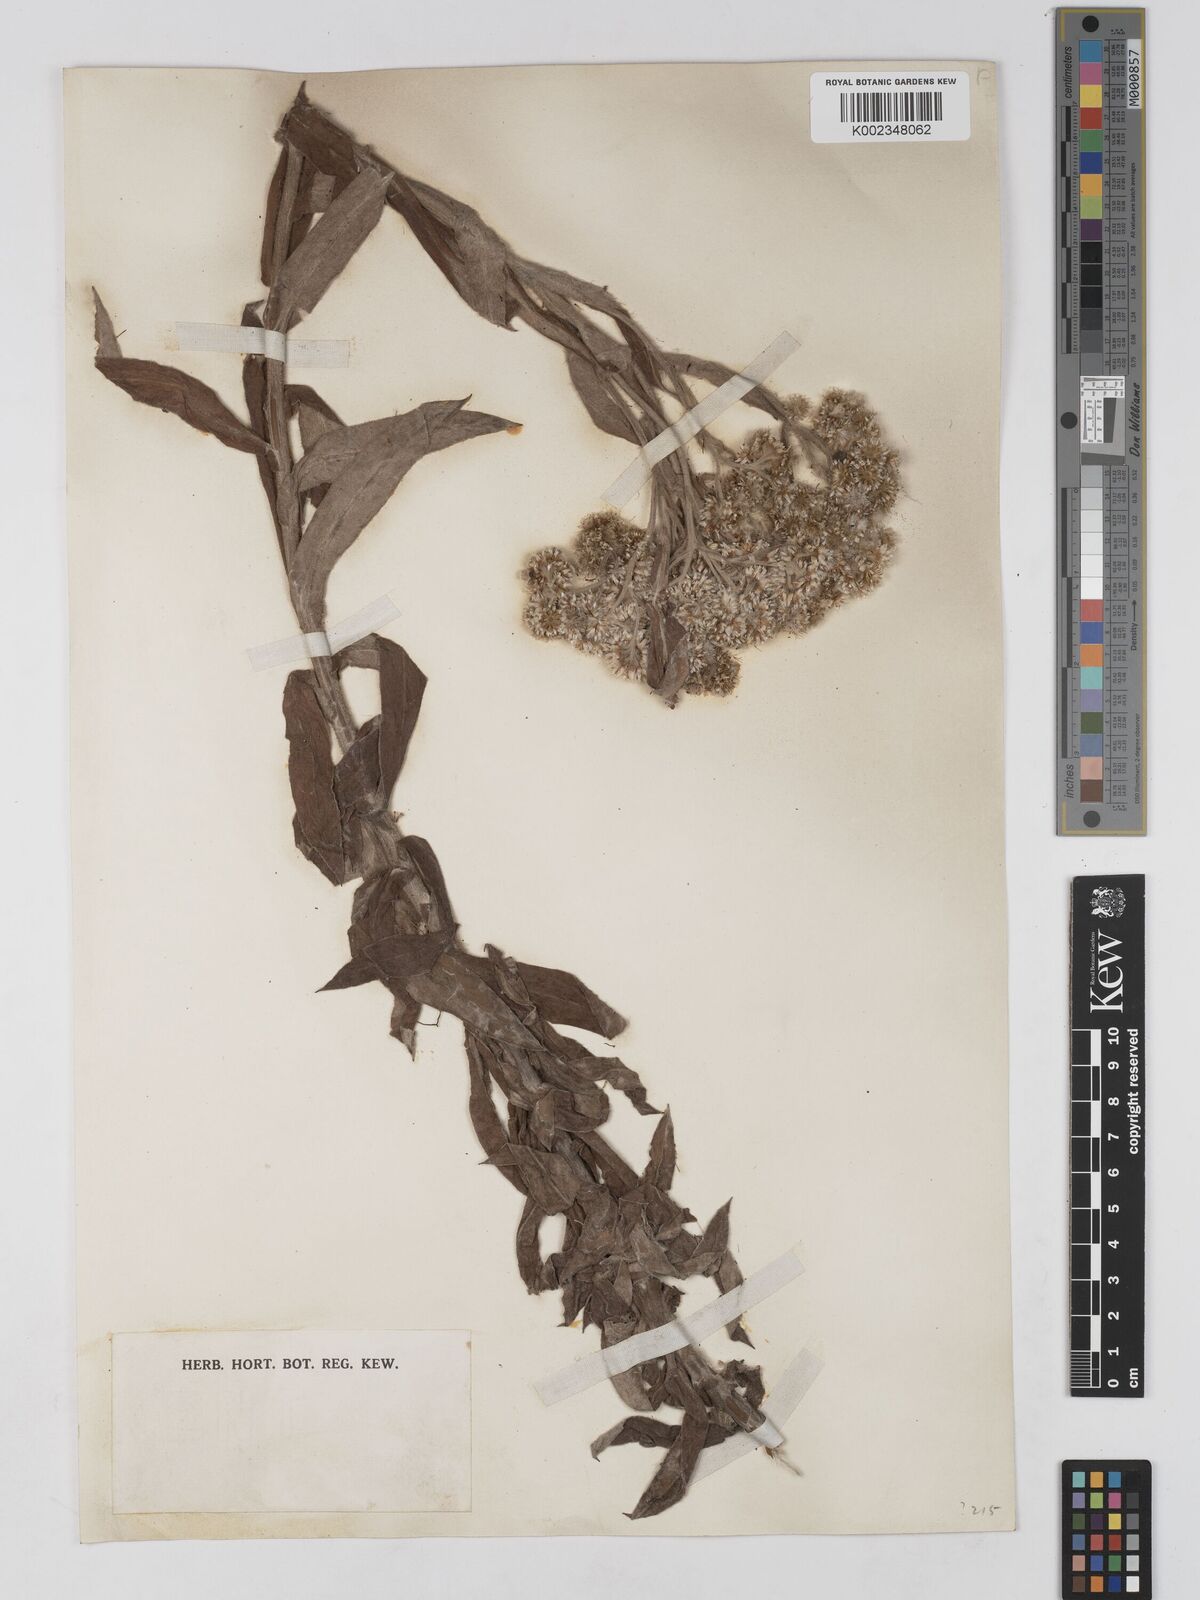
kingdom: Plantae
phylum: Tracheophyta
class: Magnoliopsida
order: Asterales
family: Asteraceae
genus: Anaphalis
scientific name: Anaphalis maxima
